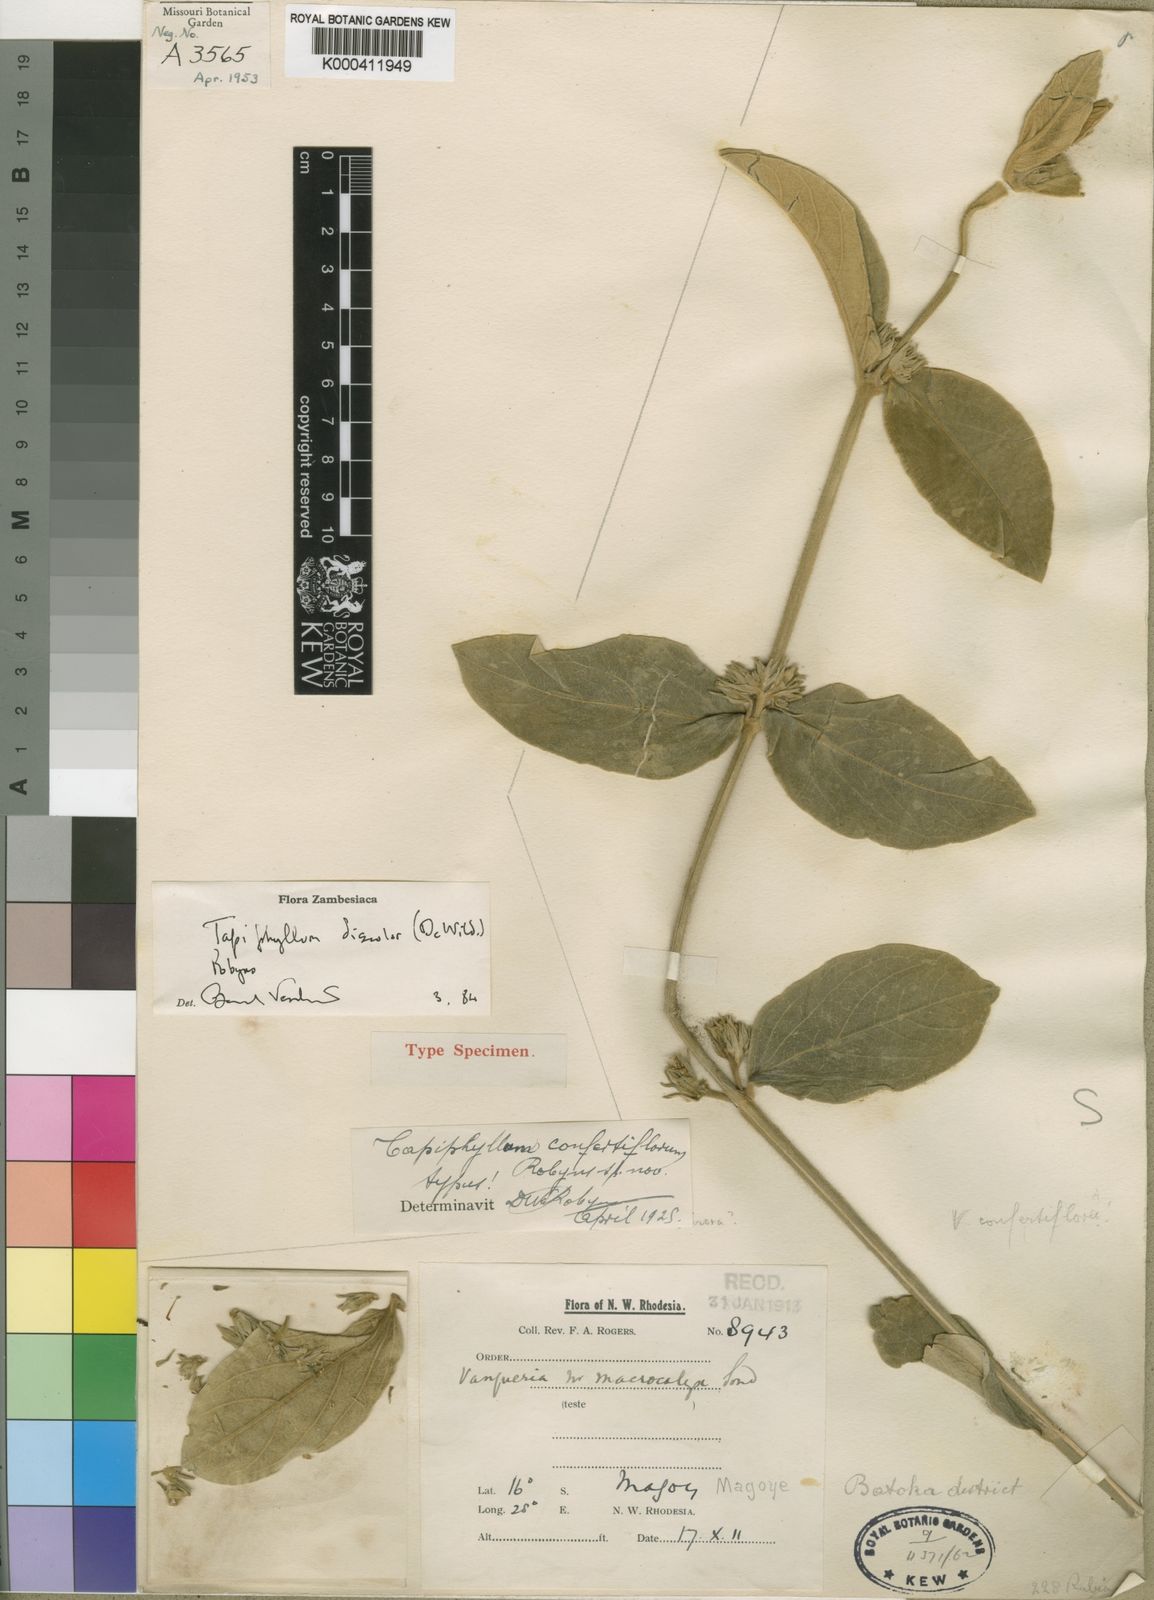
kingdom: Plantae
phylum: Tracheophyta
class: Magnoliopsida
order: Gentianales
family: Rubiaceae
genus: Vangueria
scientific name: Vangueria discolor
